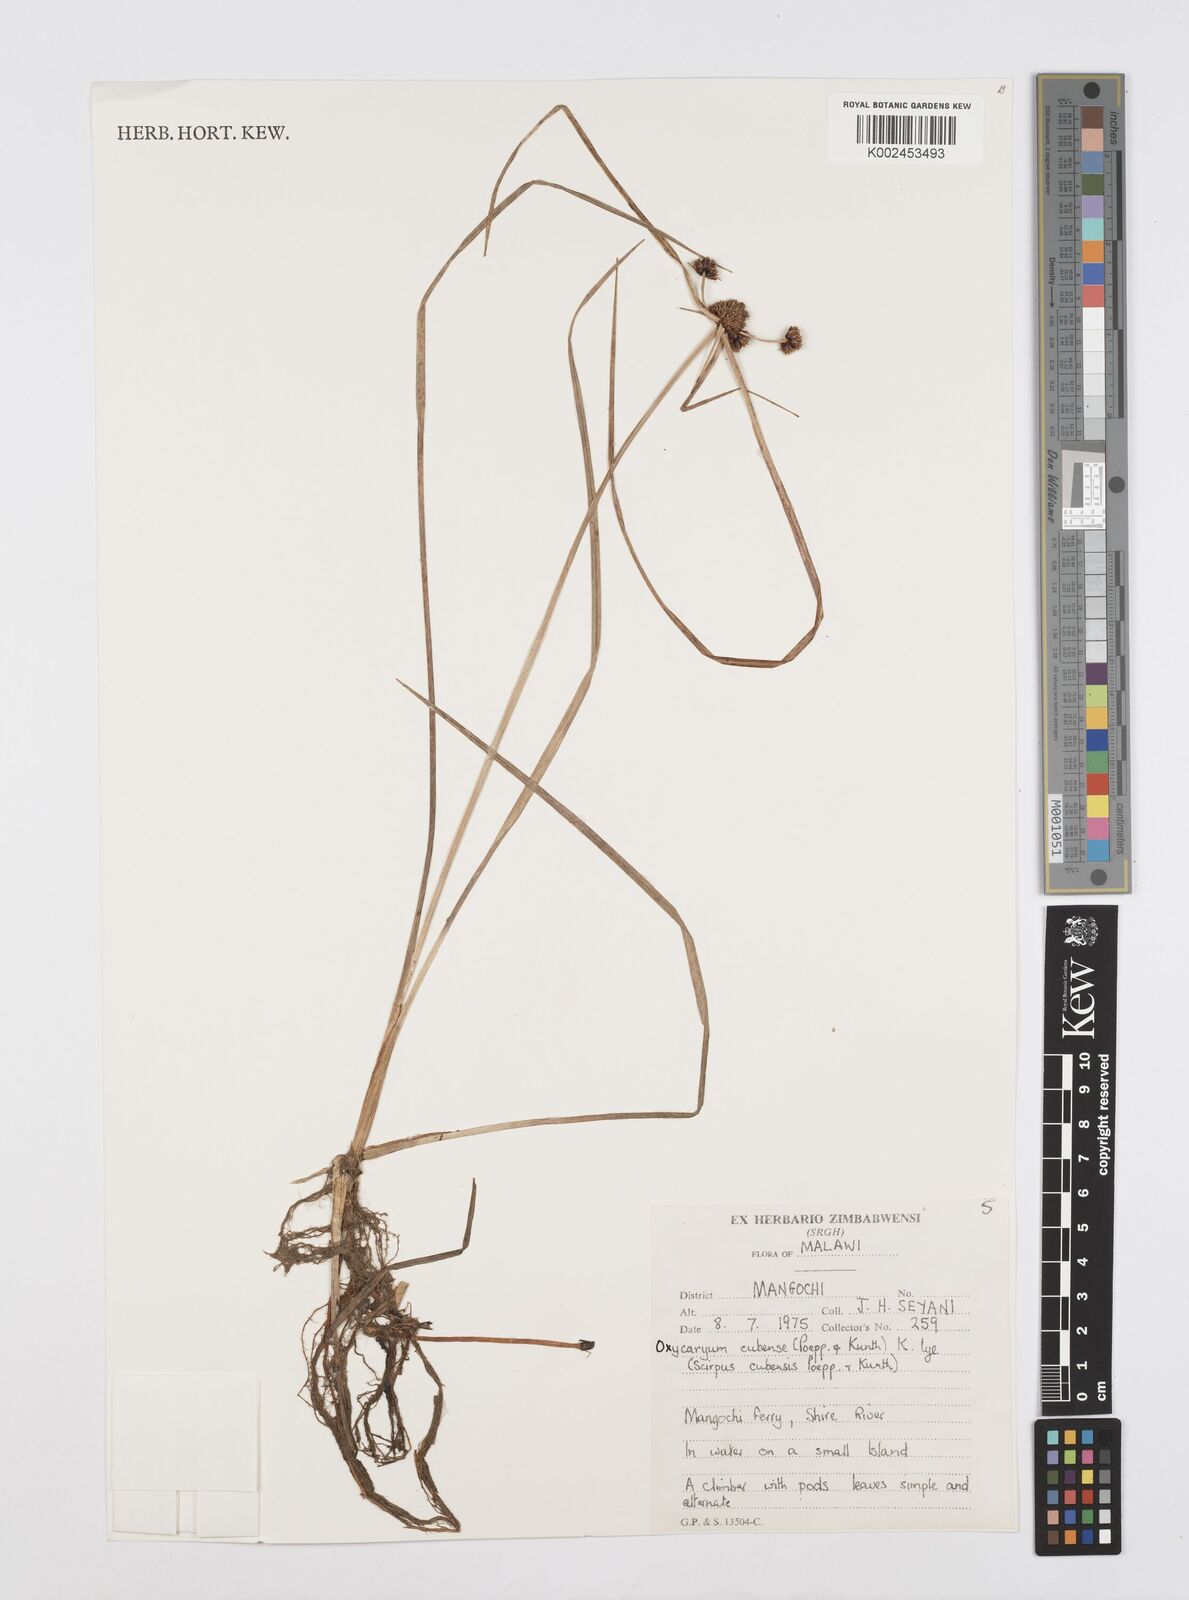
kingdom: Plantae
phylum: Tracheophyta
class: Liliopsida
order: Poales
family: Cyperaceae
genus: Cyperus
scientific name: Cyperus elegans
